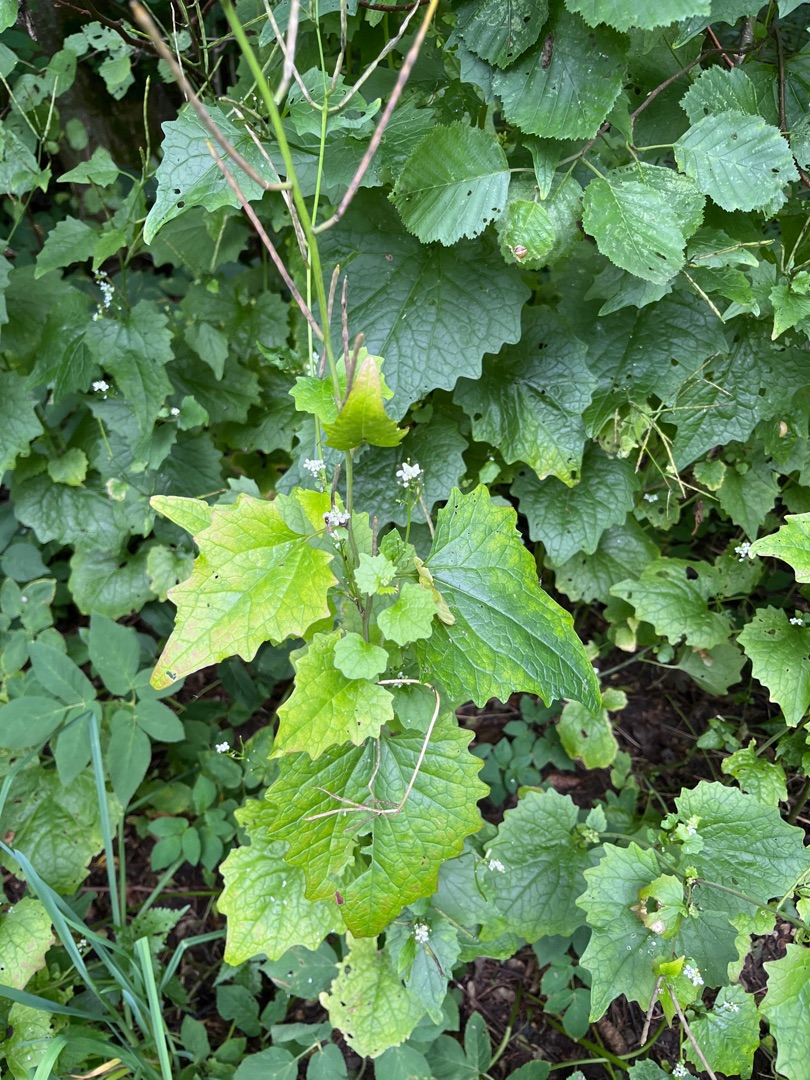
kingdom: Plantae
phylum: Tracheophyta
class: Magnoliopsida
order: Brassicales
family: Brassicaceae
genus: Alliaria
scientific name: Alliaria petiolata
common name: Løgkarse
